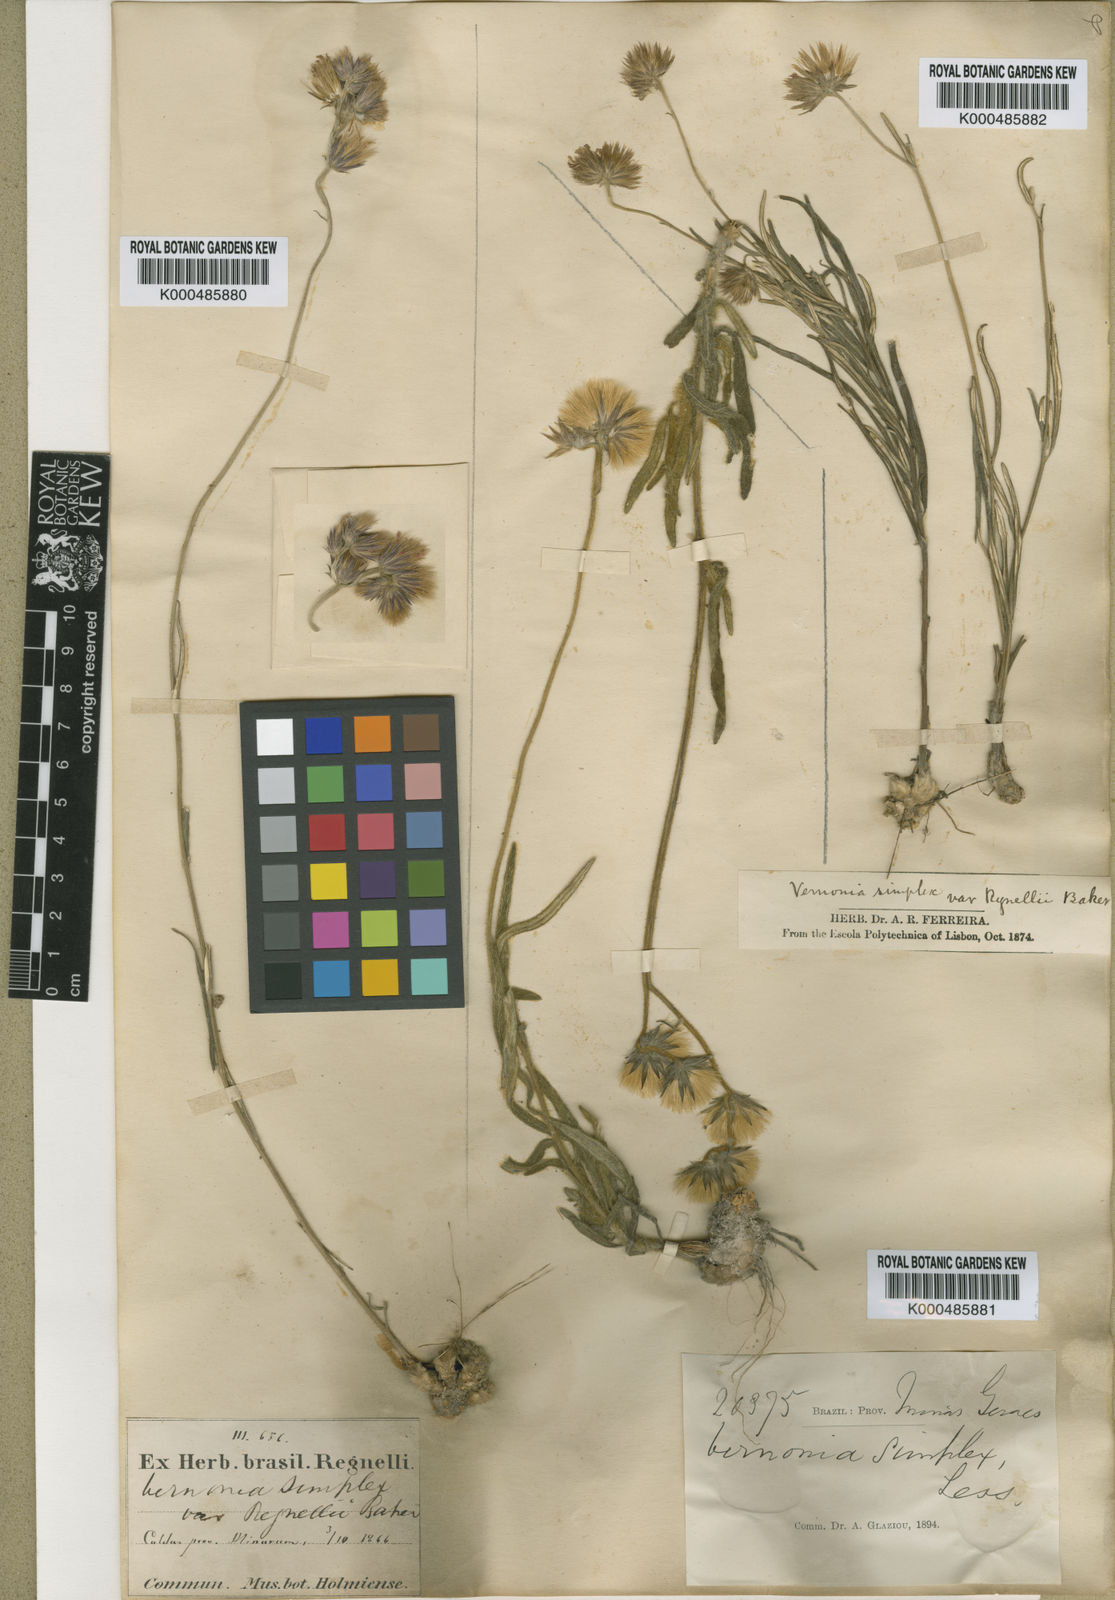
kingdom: Plantae
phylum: Tracheophyta
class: Magnoliopsida
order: Asterales
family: Asteraceae
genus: Chrysolaena
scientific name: Chrysolaena simplex
